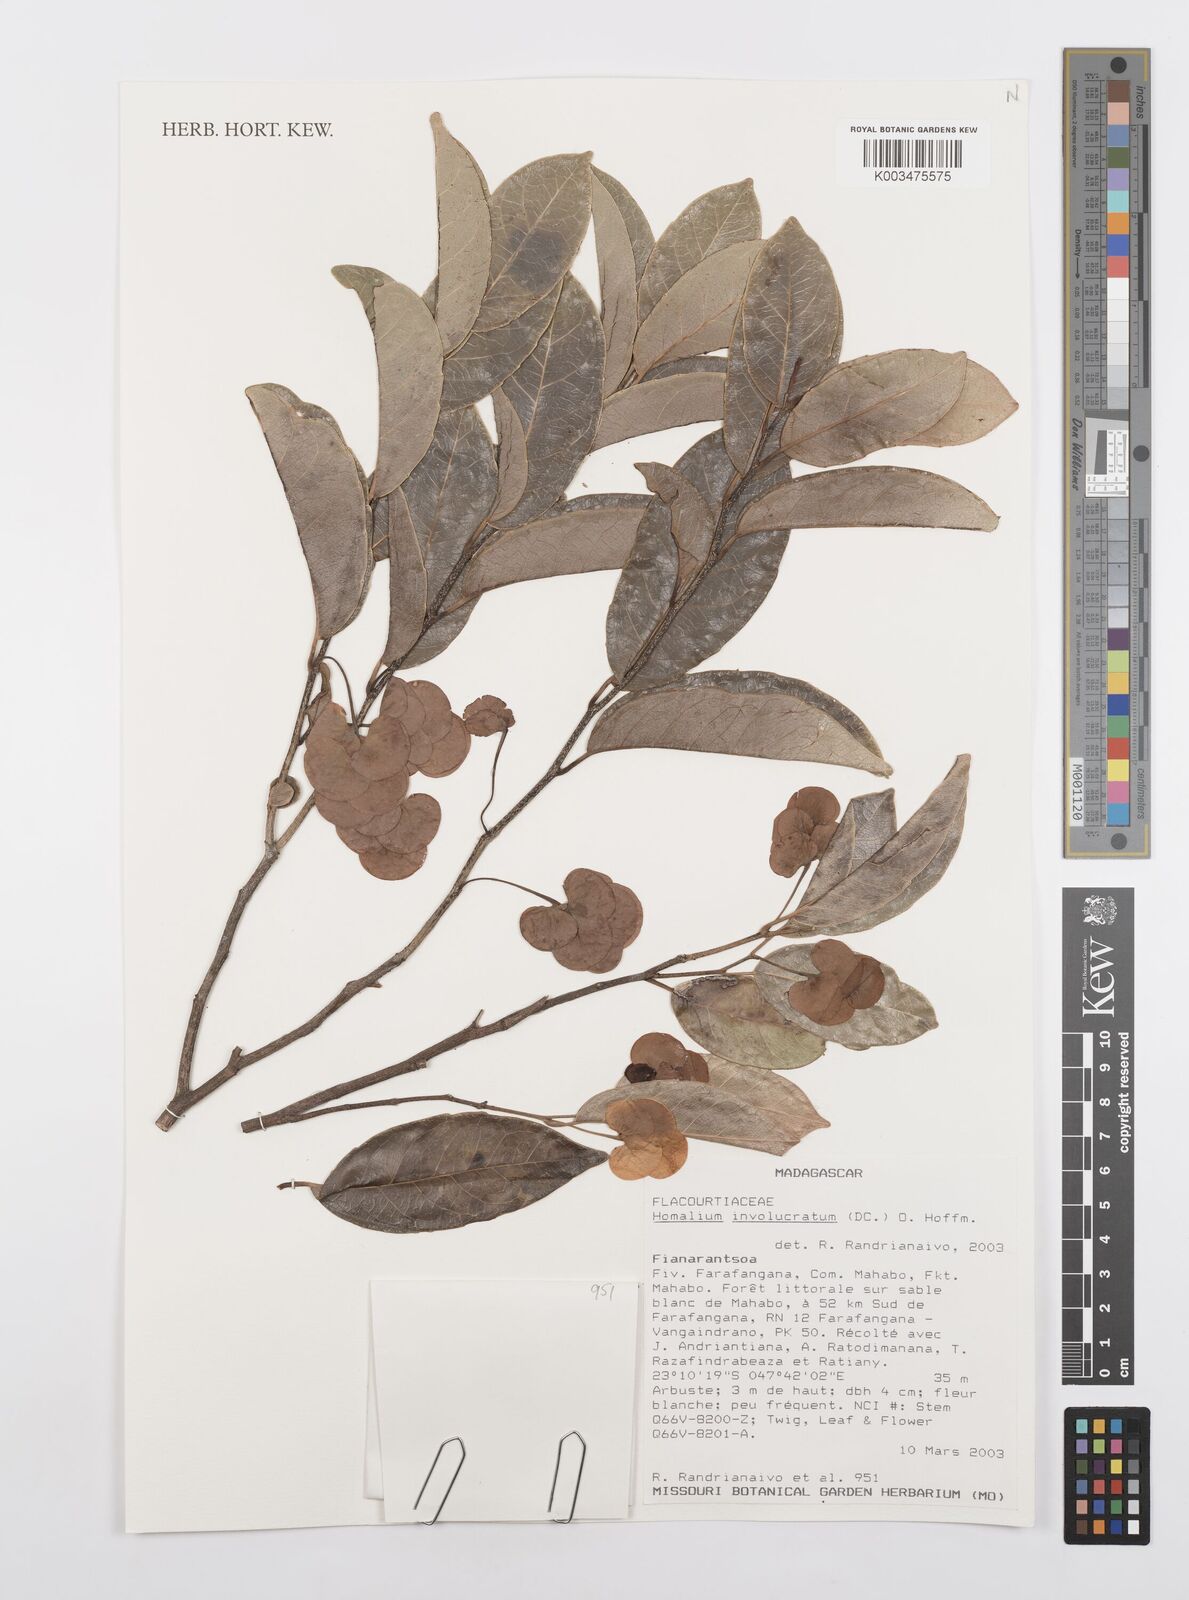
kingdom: Plantae
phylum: Tracheophyta
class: Magnoliopsida
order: Malpighiales
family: Salicaceae
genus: Homalium
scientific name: Homalium involucratum
